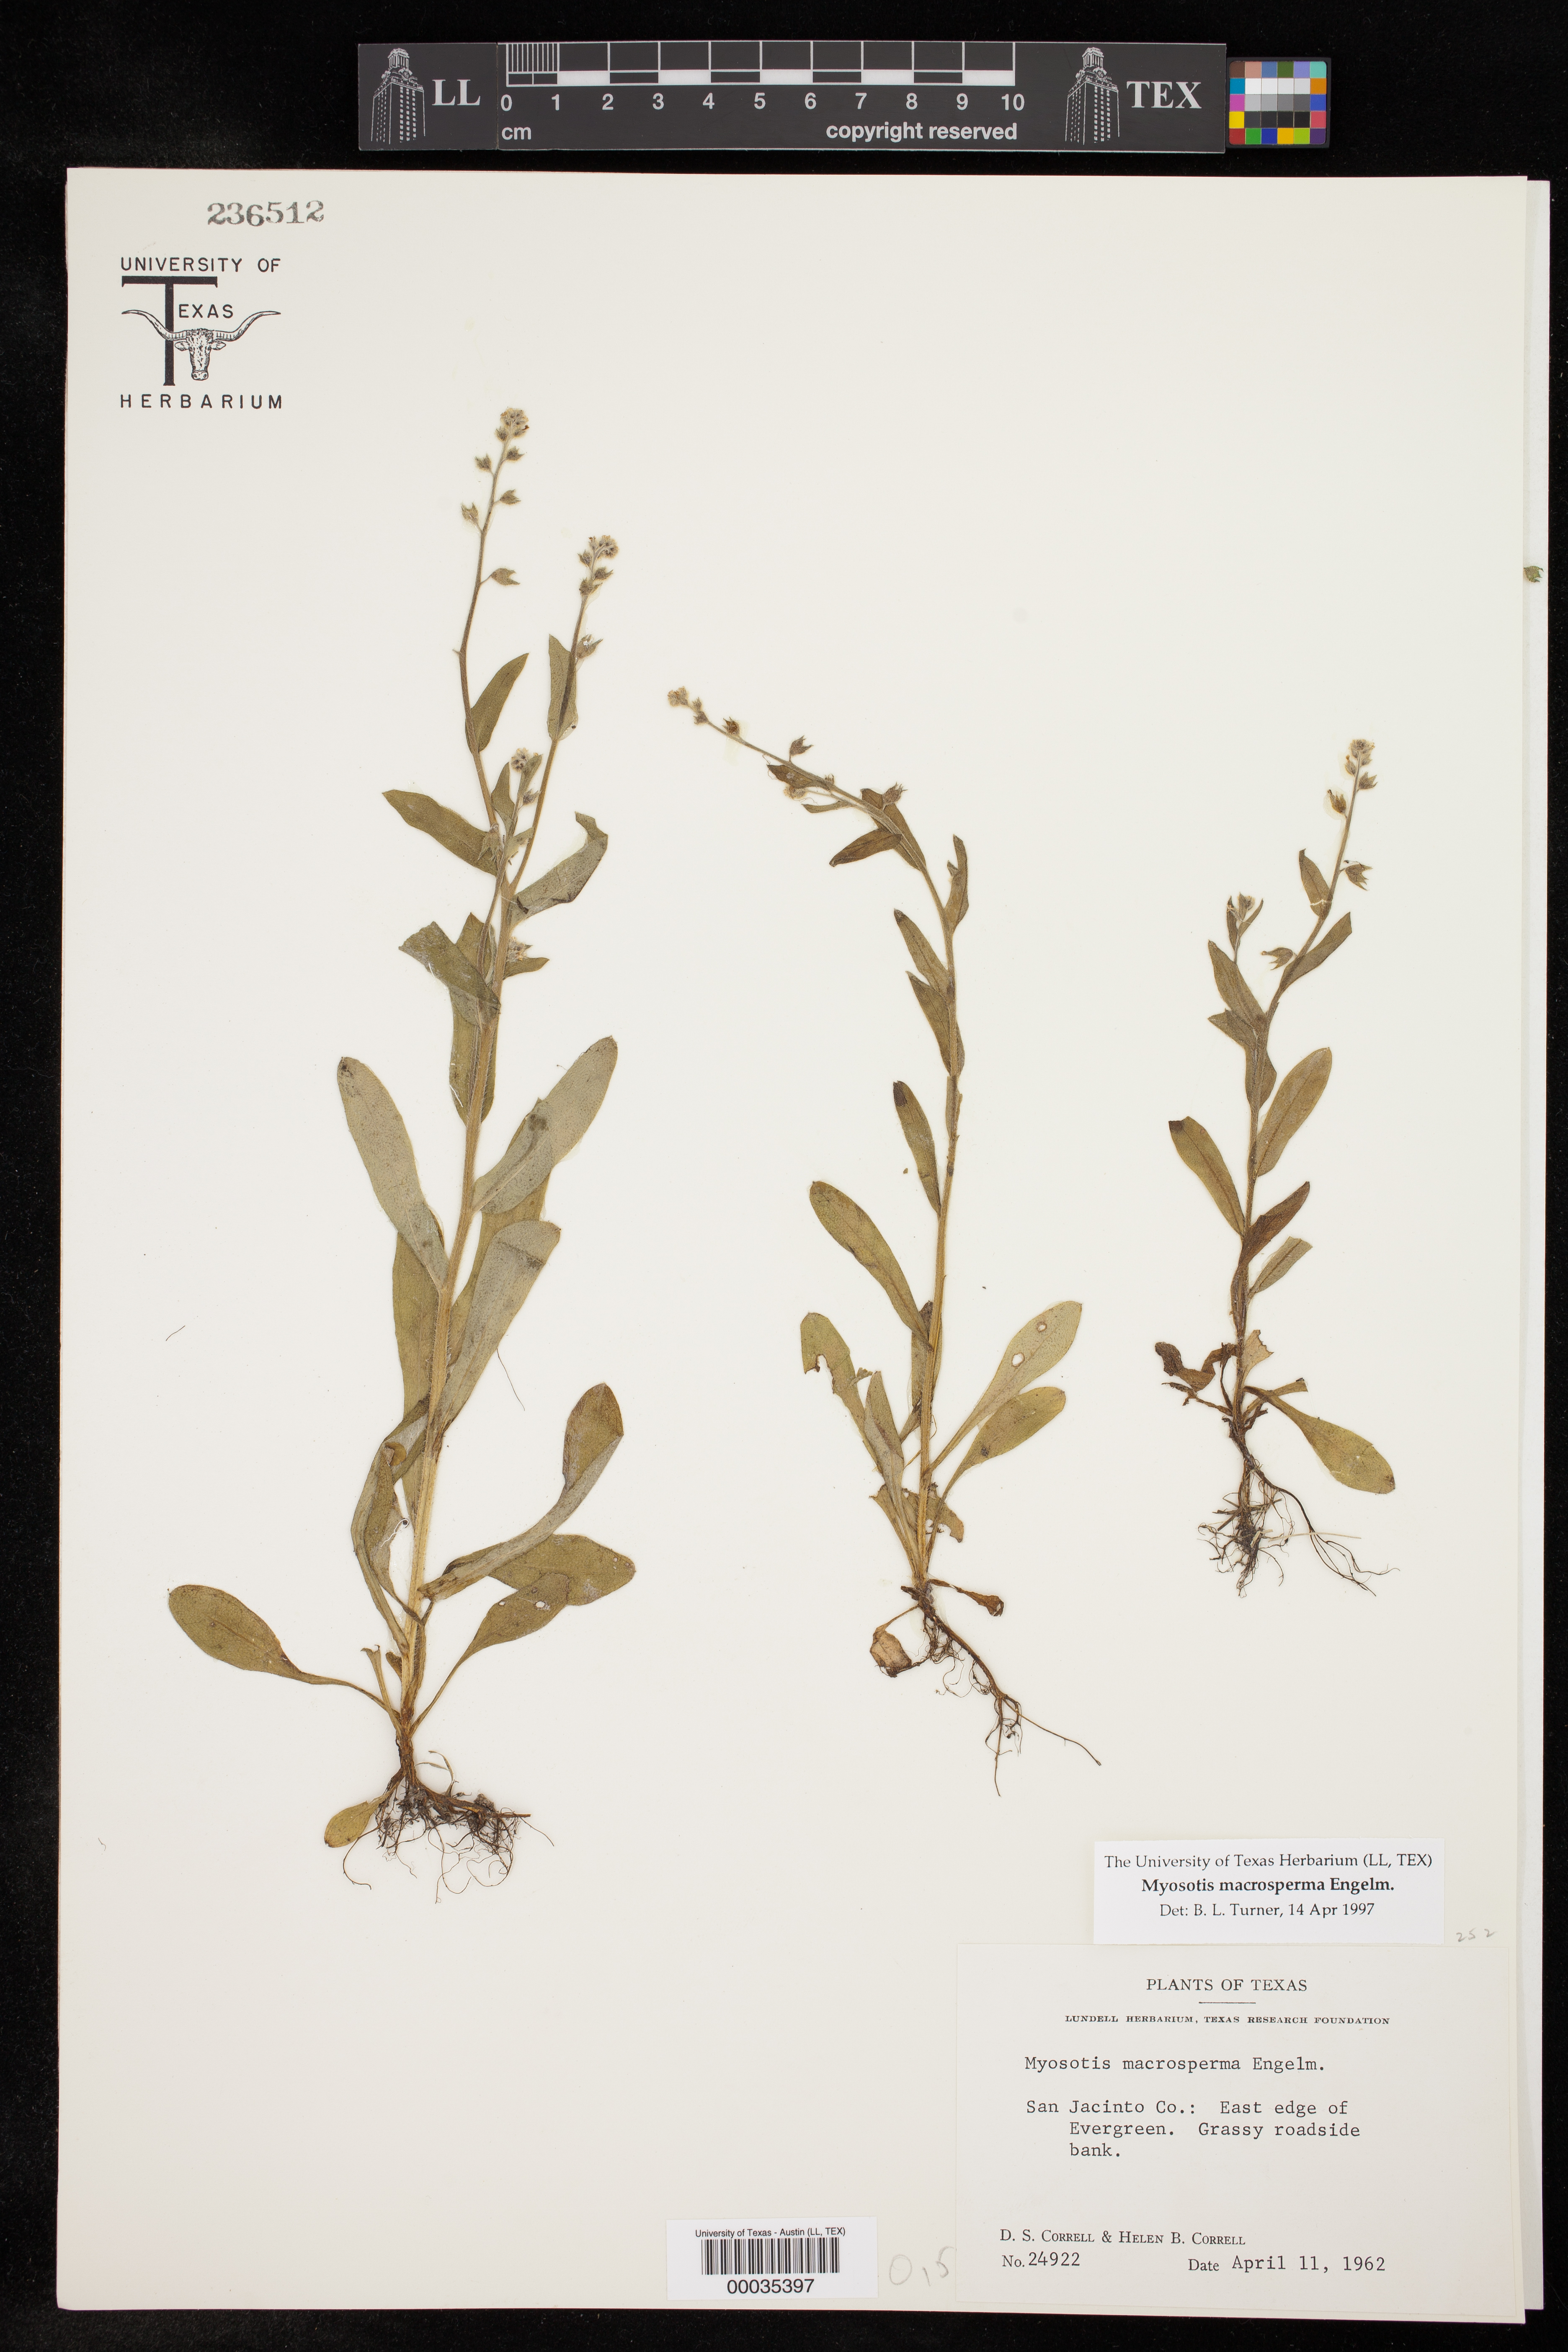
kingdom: Plantae
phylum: Tracheophyta
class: Magnoliopsida
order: Boraginales
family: Boraginaceae
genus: Myosotis
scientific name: Myosotis macrosperma
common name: Large-seed forget-me-not
